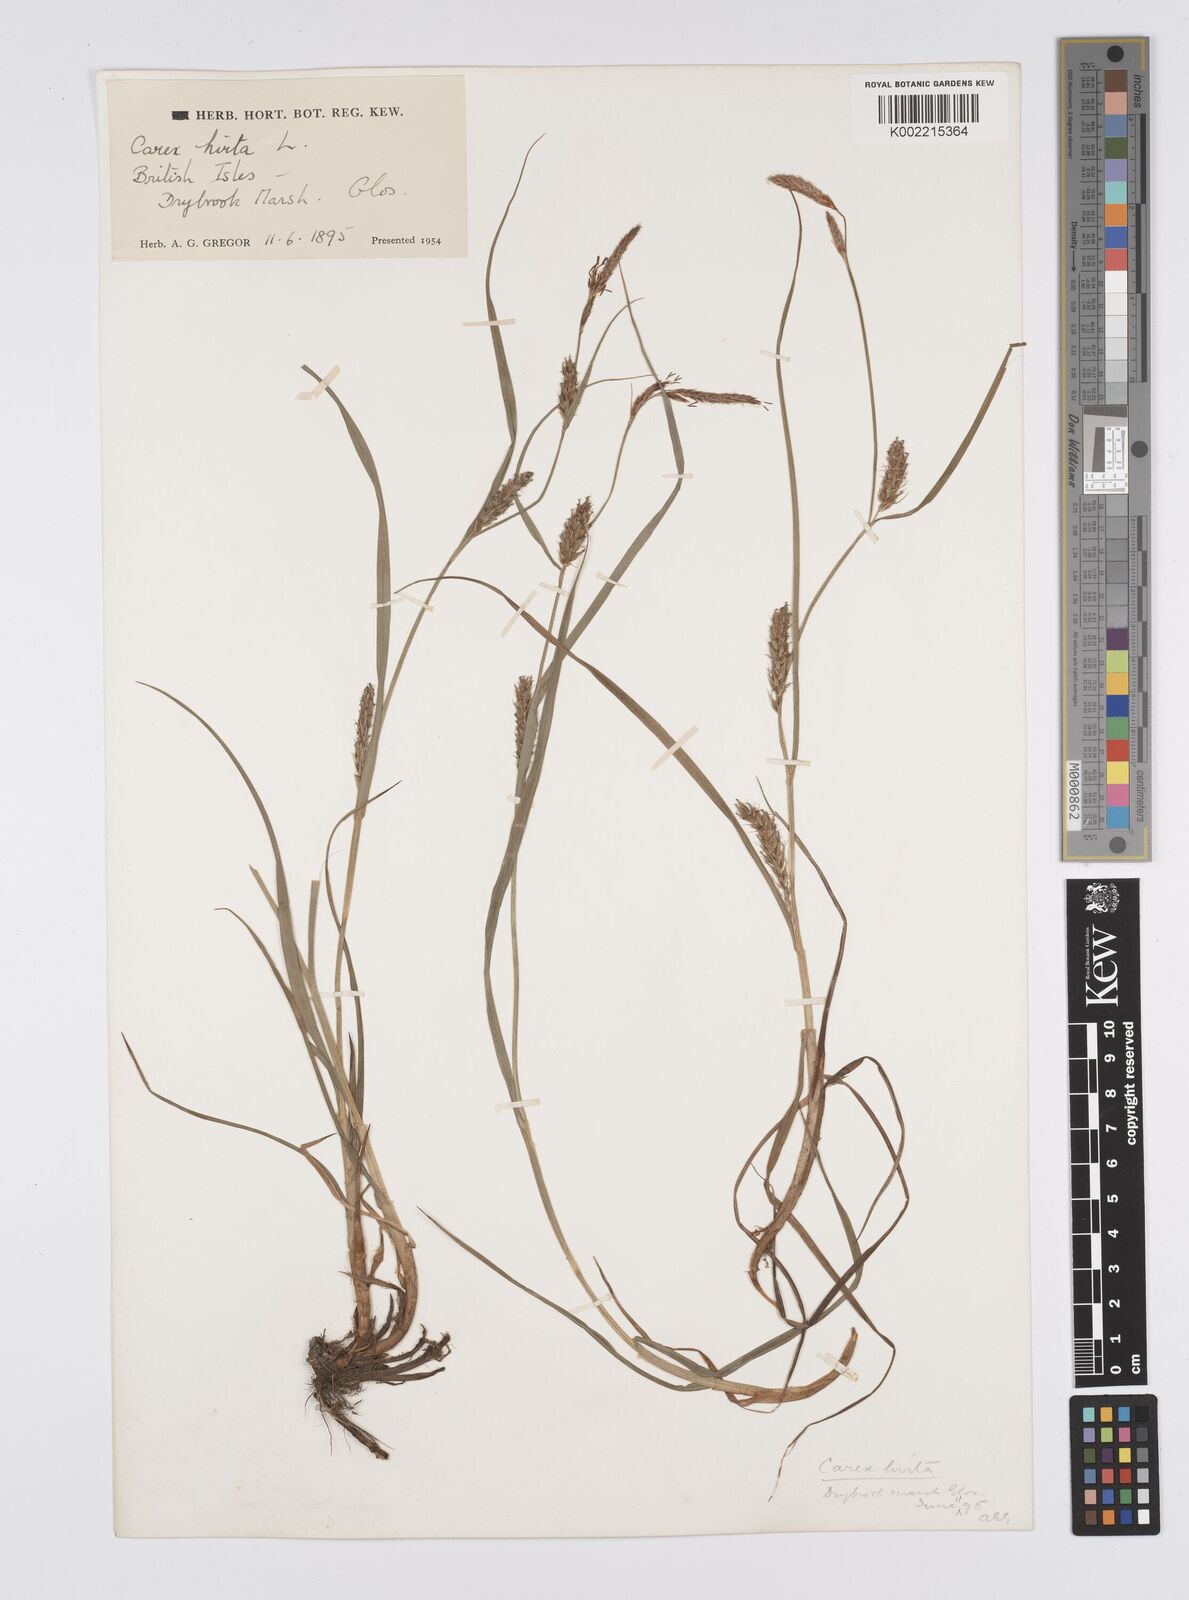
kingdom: Plantae
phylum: Tracheophyta
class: Liliopsida
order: Poales
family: Cyperaceae
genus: Carex
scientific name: Carex hirta
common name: Hairy sedge
